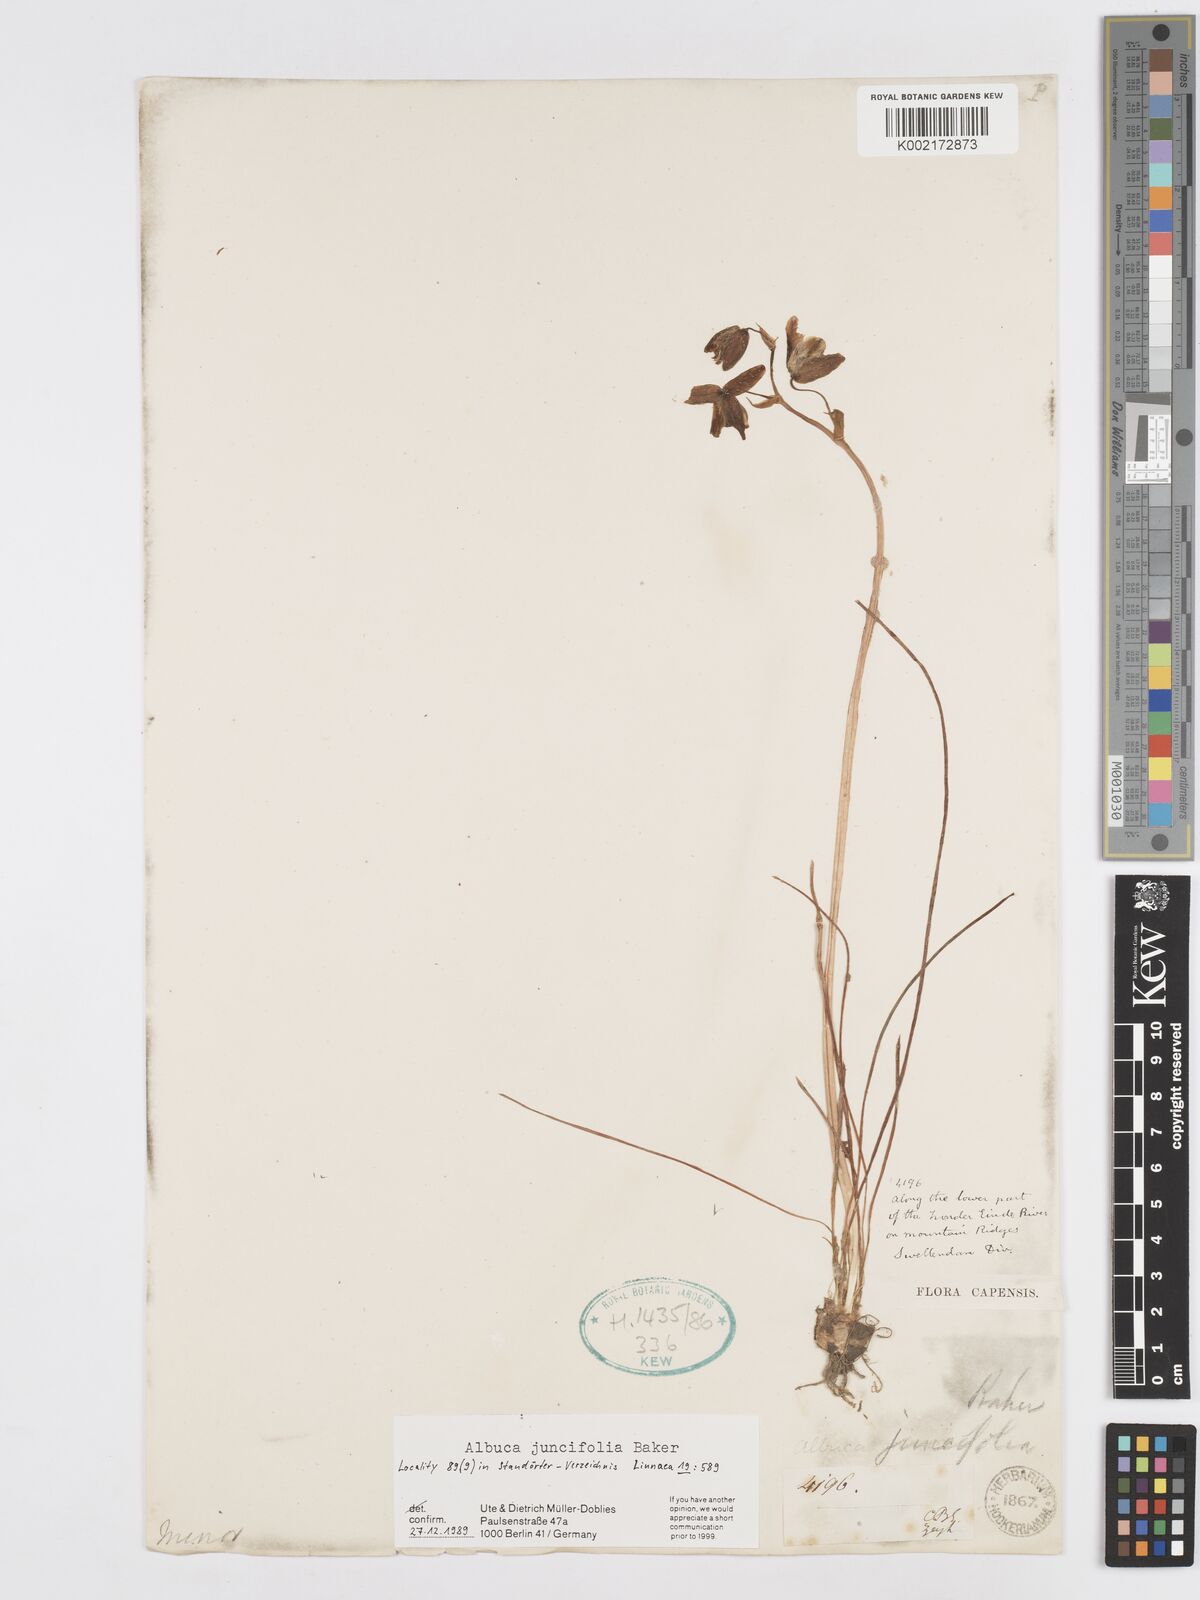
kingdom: Plantae
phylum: Tracheophyta
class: Liliopsida
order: Asparagales
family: Asparagaceae
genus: Albuca
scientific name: Albuca juncifolia
